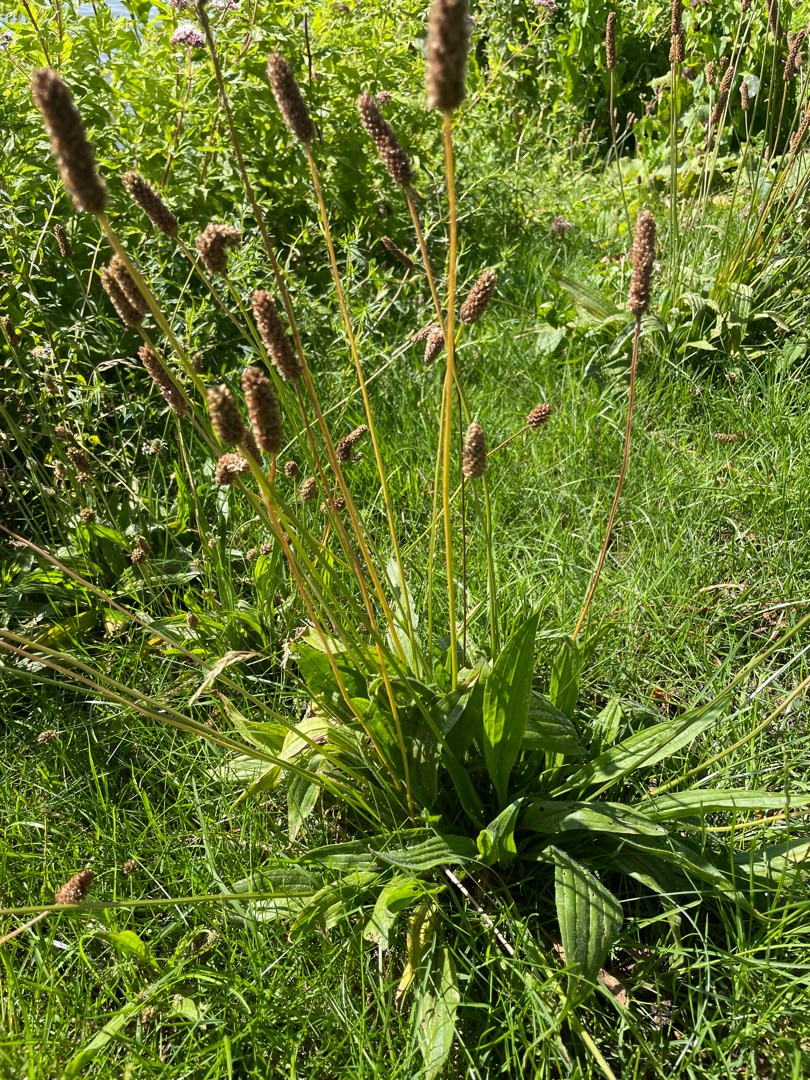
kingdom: Plantae
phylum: Tracheophyta
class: Magnoliopsida
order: Lamiales
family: Plantaginaceae
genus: Plantago
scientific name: Plantago lanceolata
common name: Lancet-vejbred
